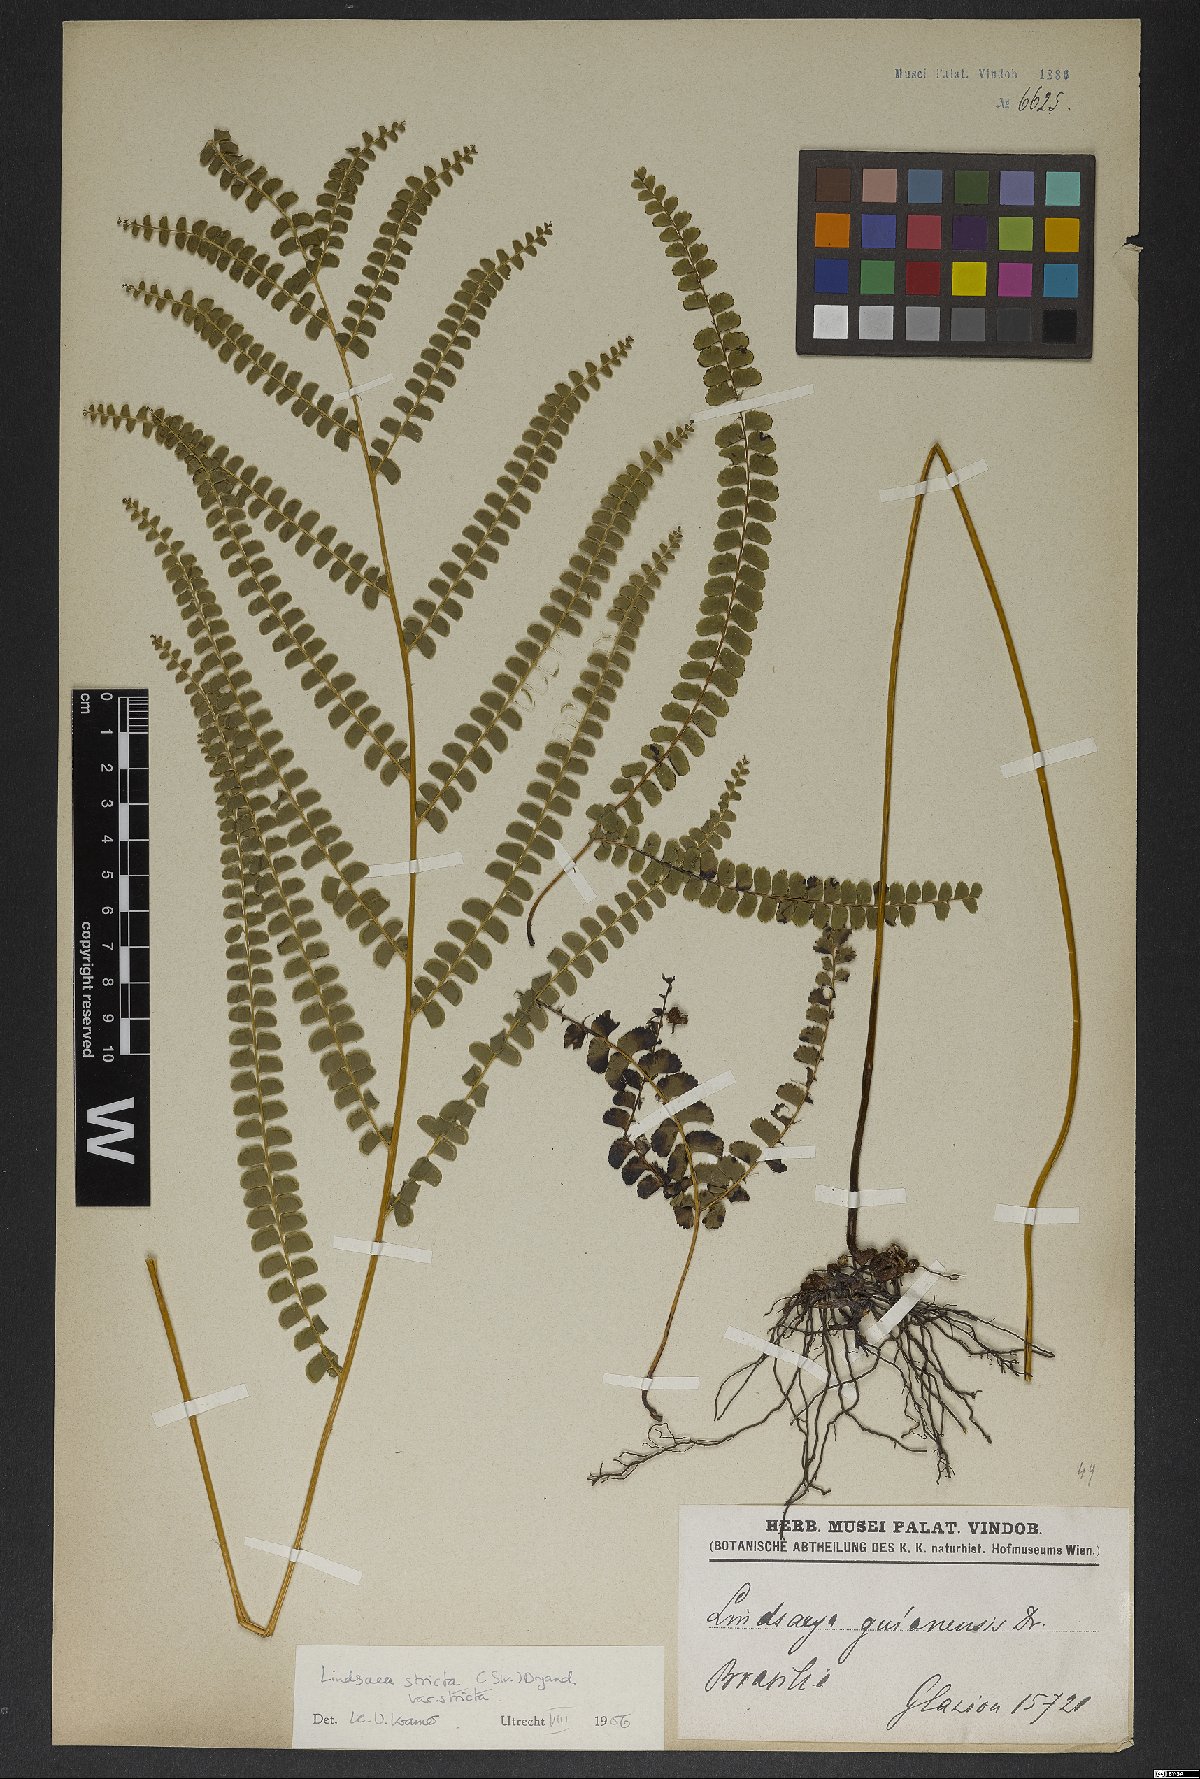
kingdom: Plantae
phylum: Tracheophyta
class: Polypodiopsida
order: Polypodiales
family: Lindsaeaceae
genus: Lindsaea
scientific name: Lindsaea stricta
